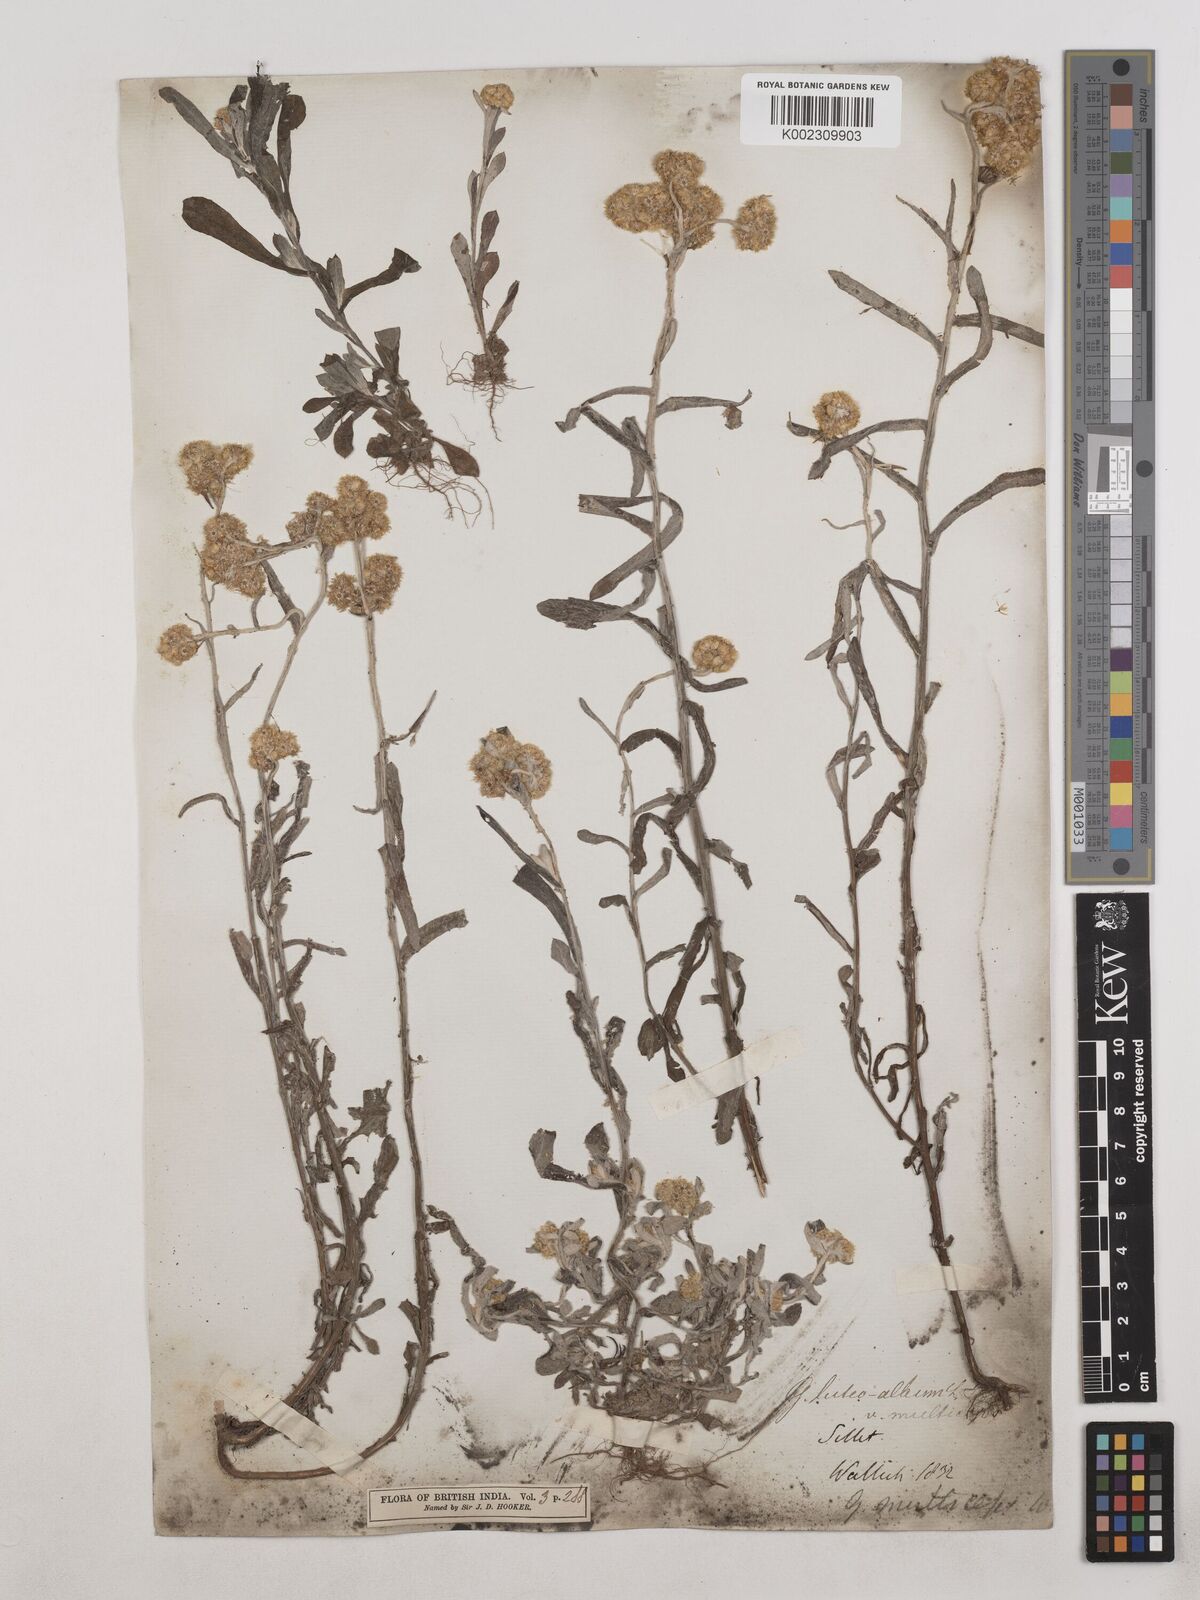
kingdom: Plantae
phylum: Tracheophyta
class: Magnoliopsida
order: Asterales
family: Asteraceae
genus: Helichrysum
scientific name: Helichrysum luteoalbum
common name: Daisy
